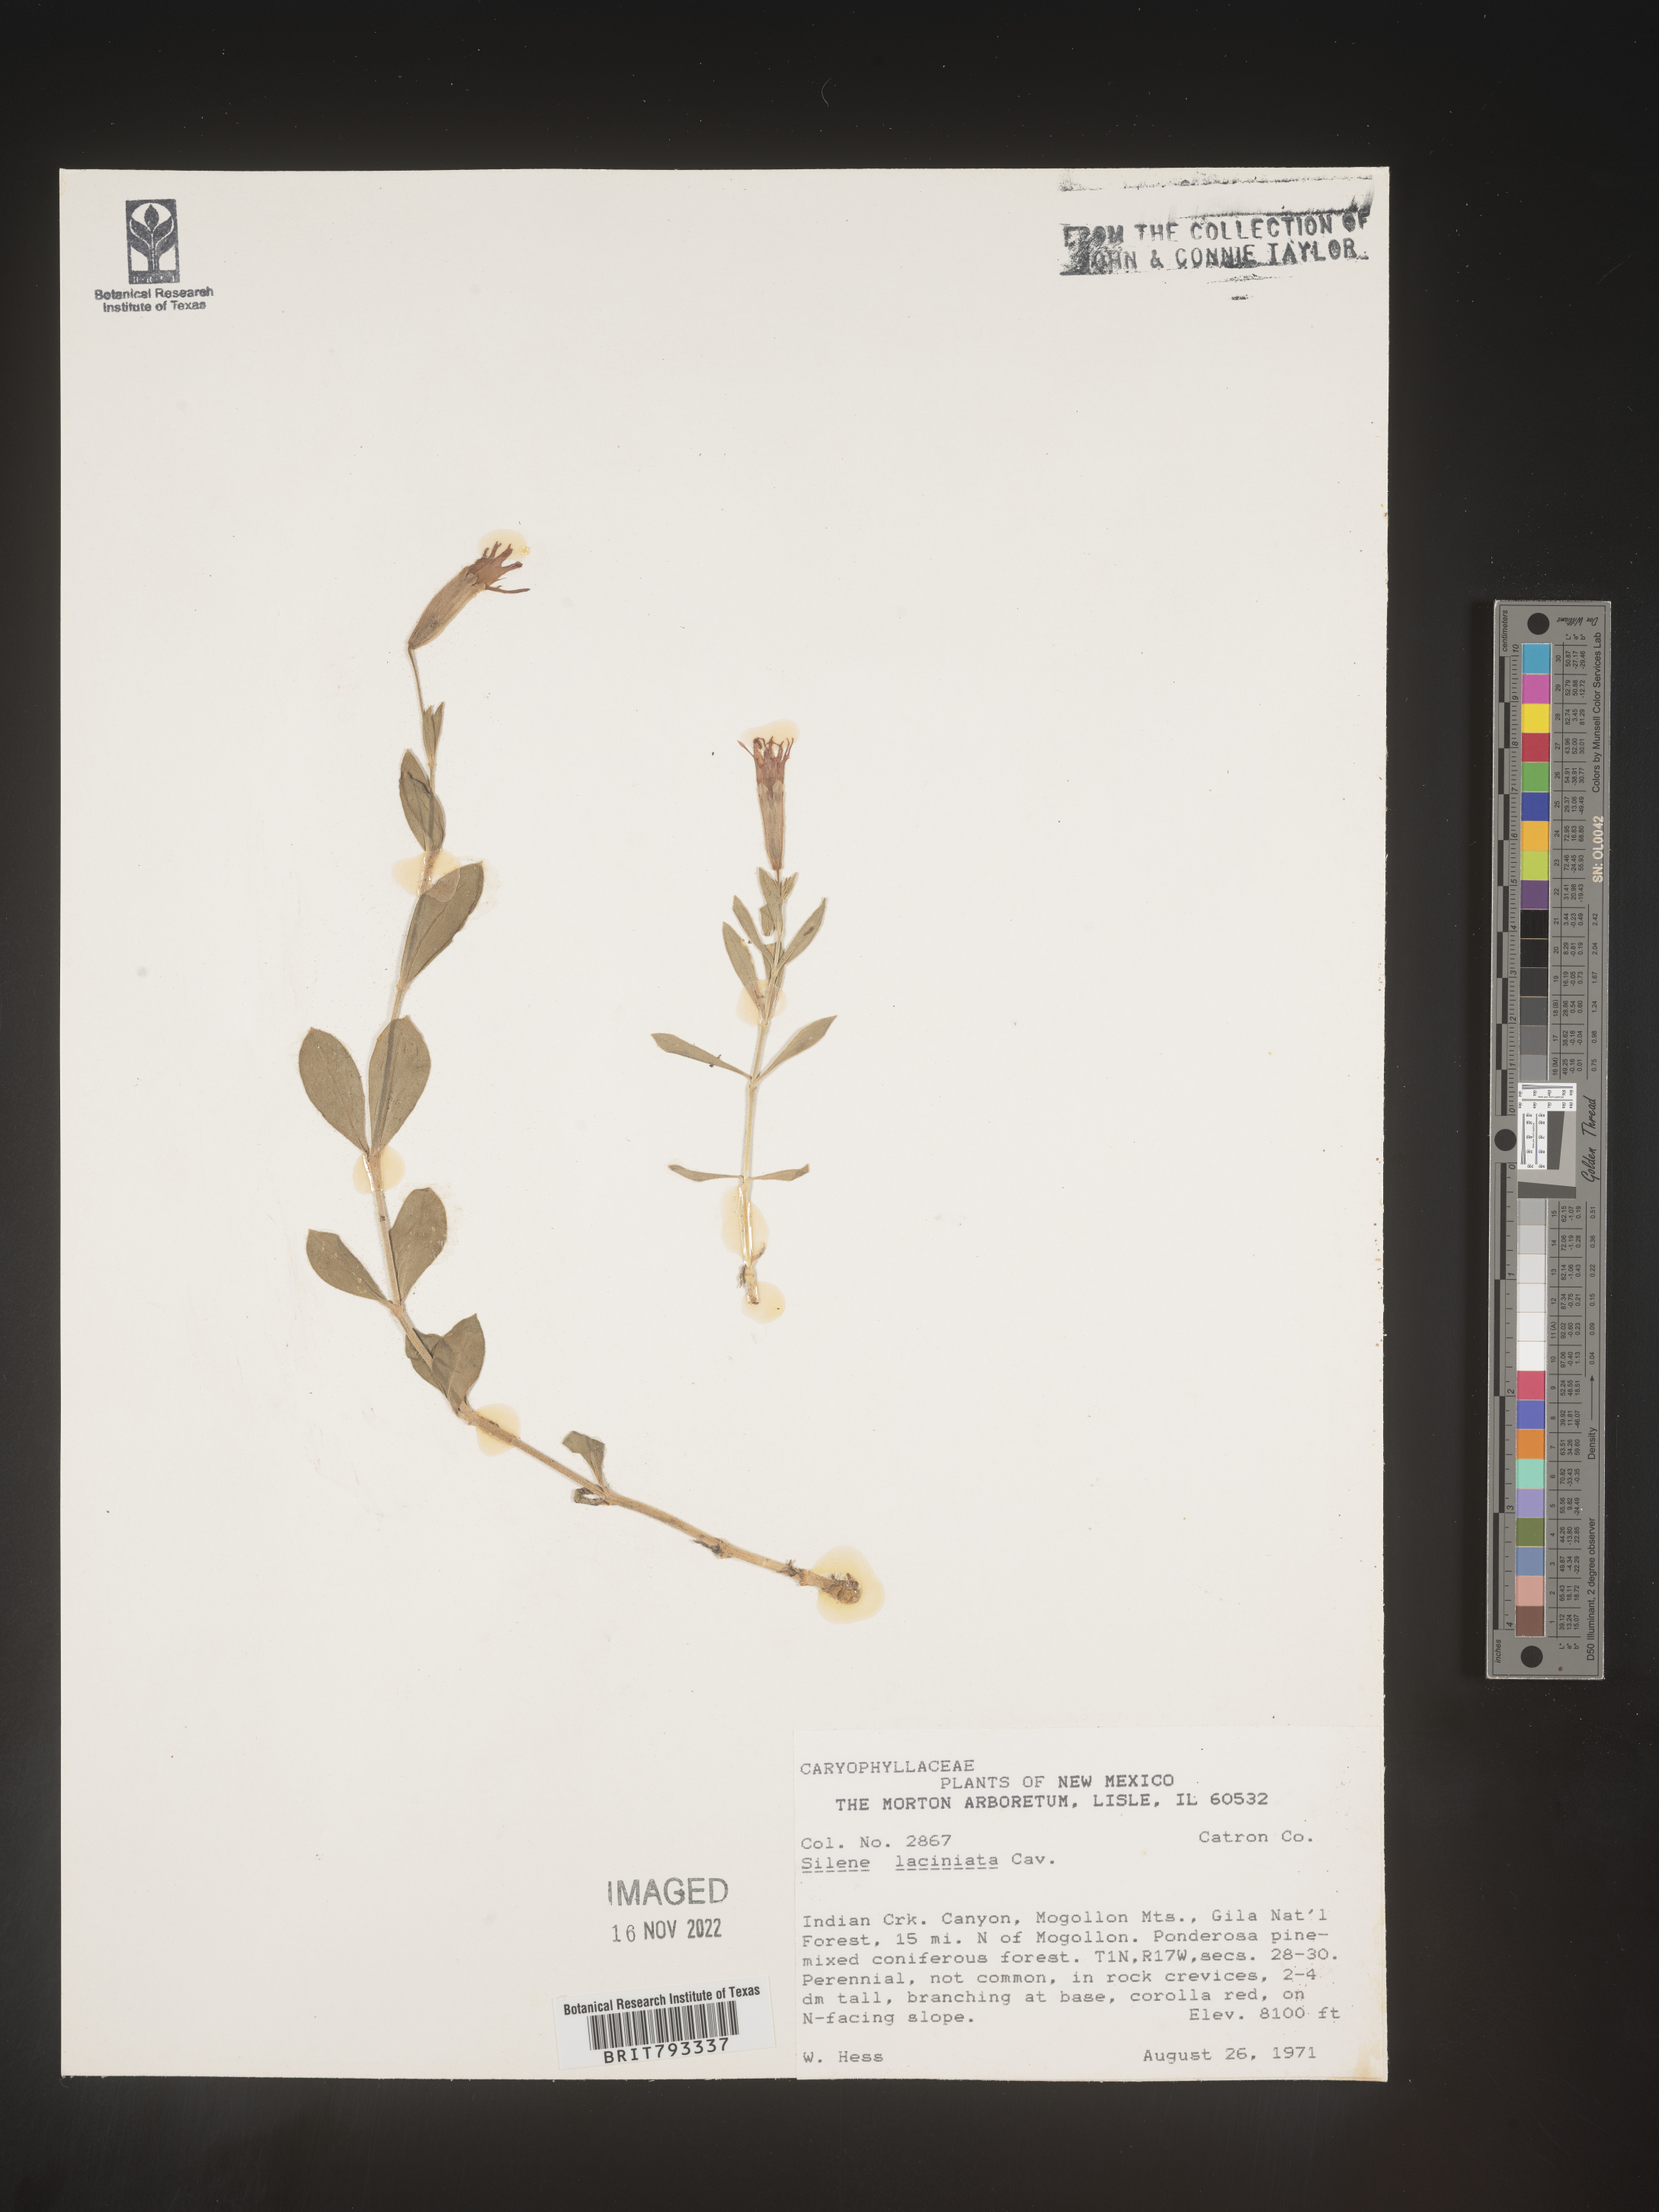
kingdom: Plantae
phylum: Tracheophyta
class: Magnoliopsida
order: Caryophyllales
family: Caryophyllaceae
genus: Silene
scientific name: Silene laciniata
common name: Indian-pink
